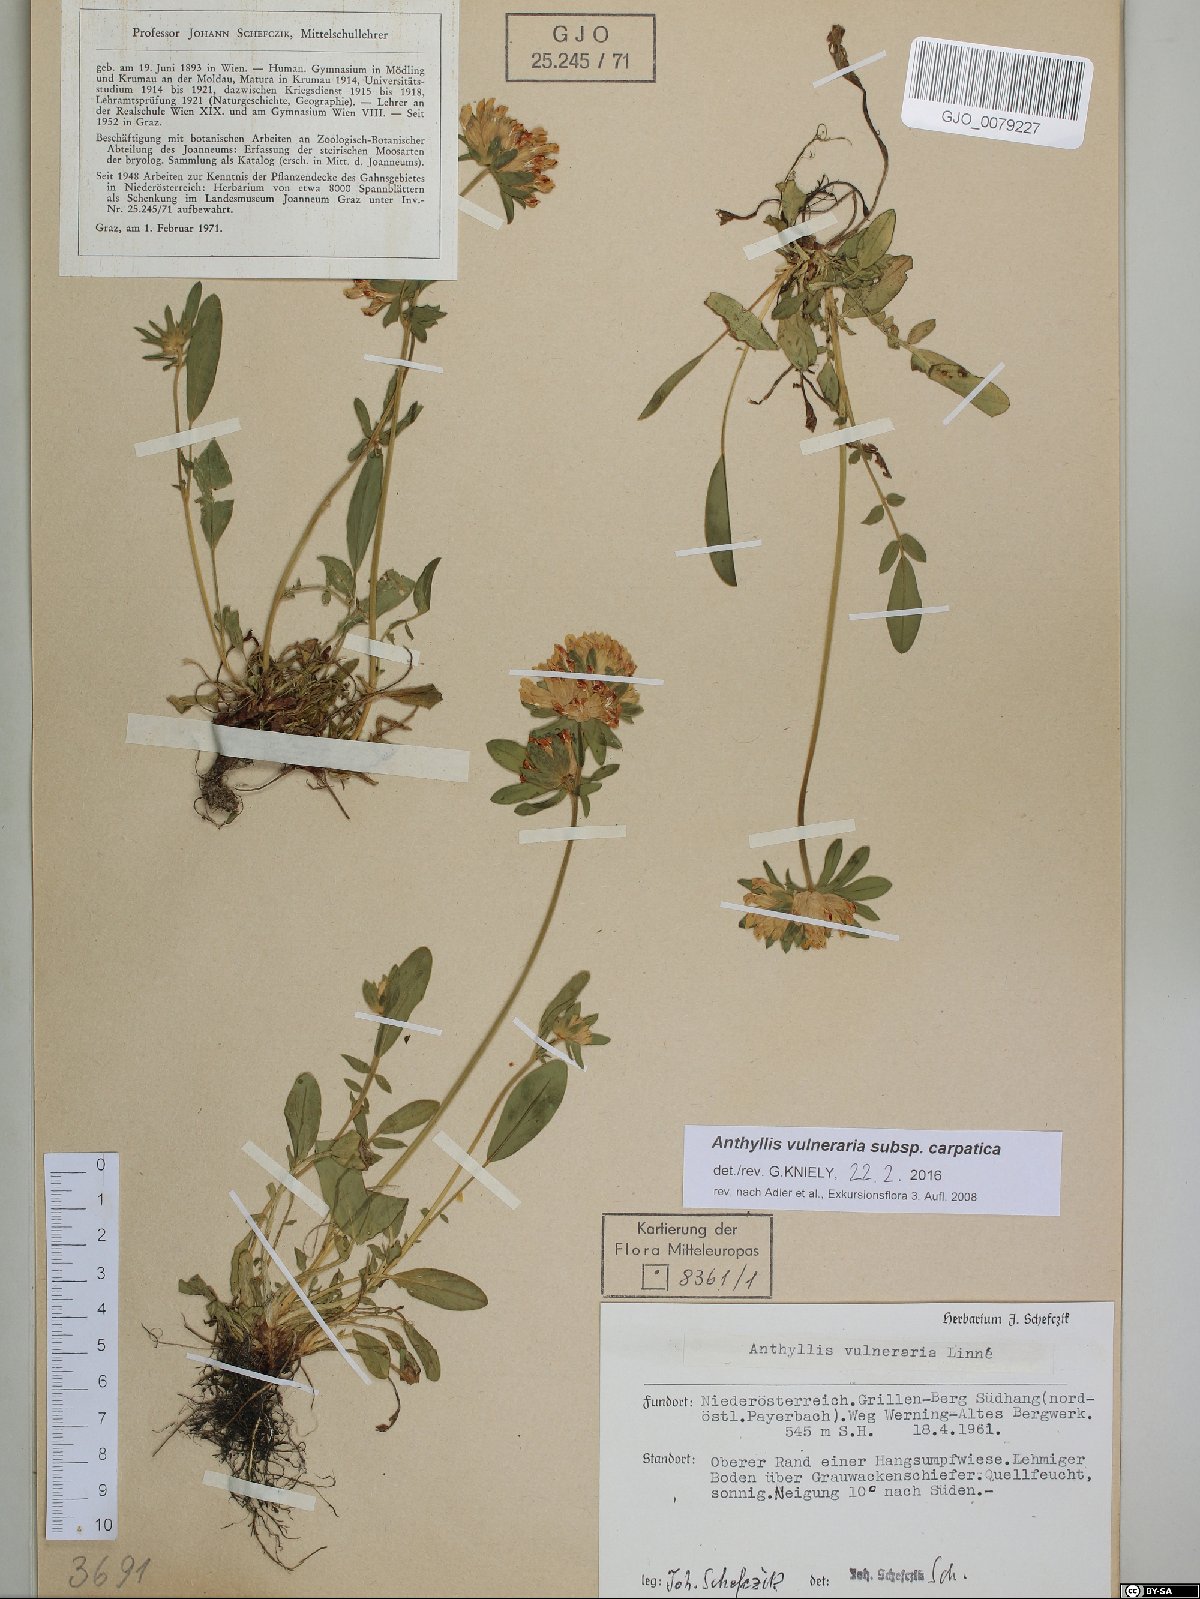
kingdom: Plantae
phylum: Tracheophyta
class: Magnoliopsida
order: Fabales
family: Fabaceae
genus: Anthyllis
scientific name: Anthyllis vulneraria
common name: Kidney vetch
